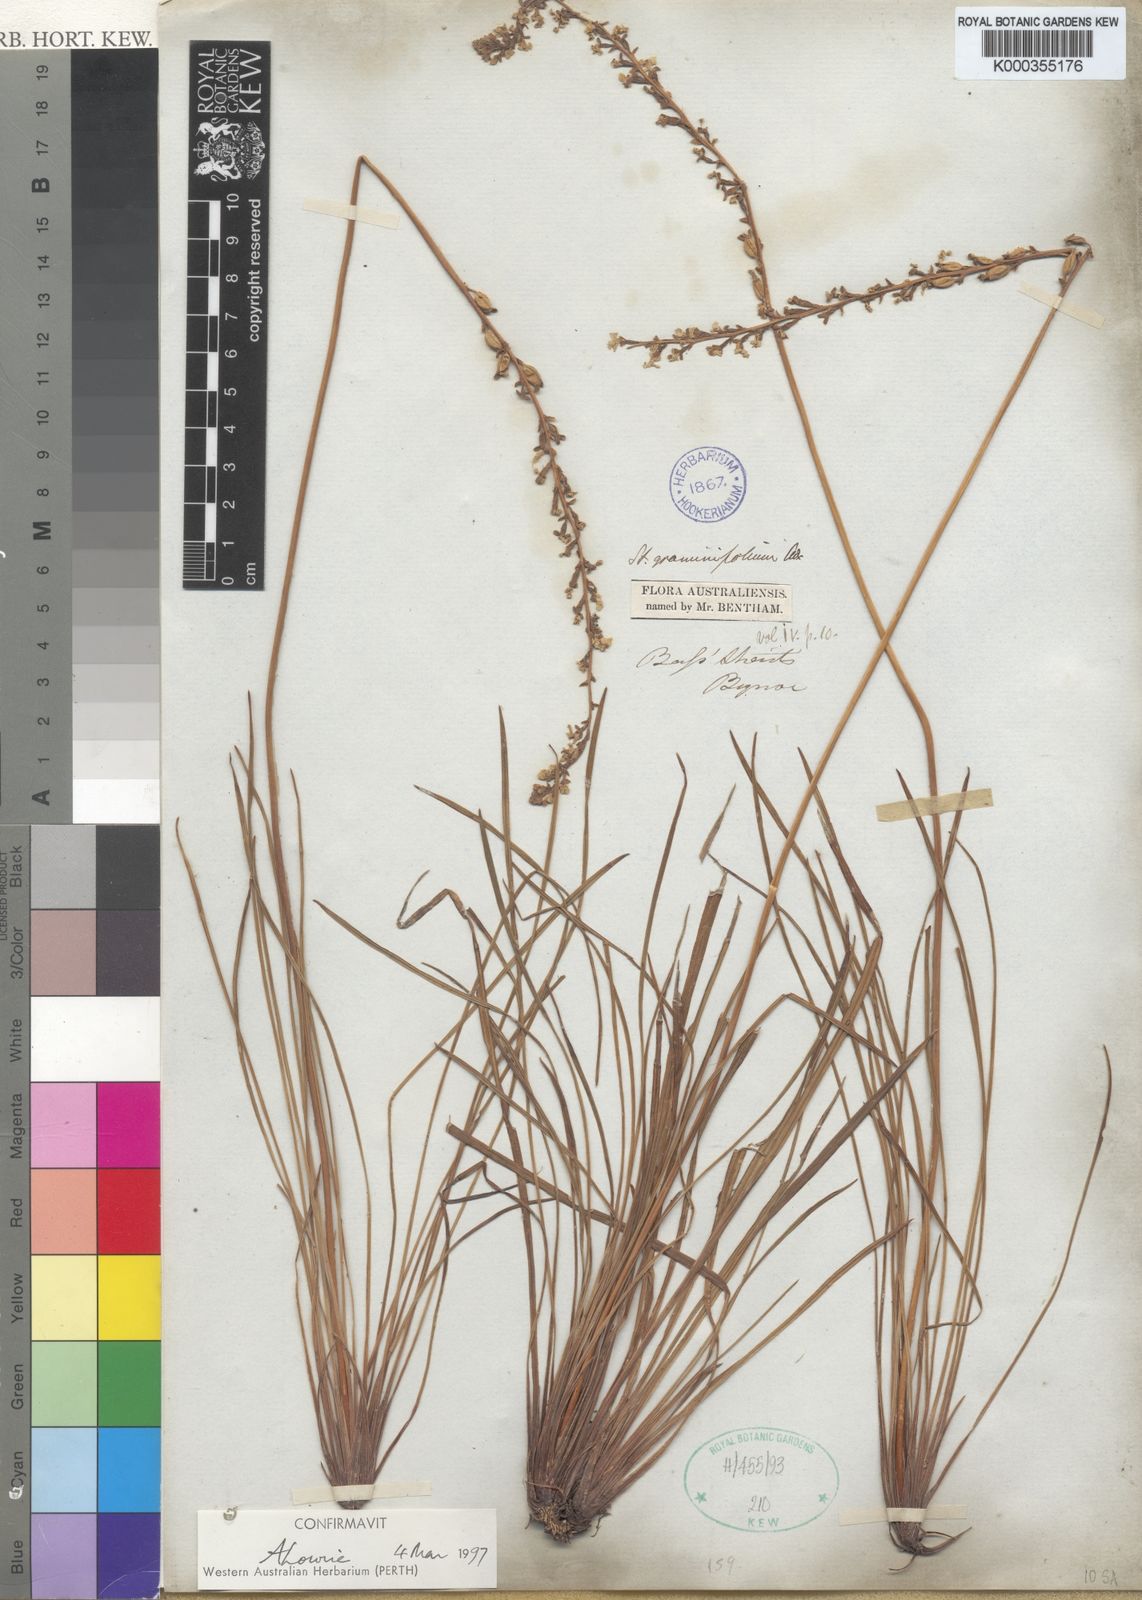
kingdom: Plantae
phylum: Tracheophyta
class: Magnoliopsida
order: Asterales
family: Stylidiaceae
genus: Stylidium
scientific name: Stylidium graminifolium
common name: Grass triggerplant
